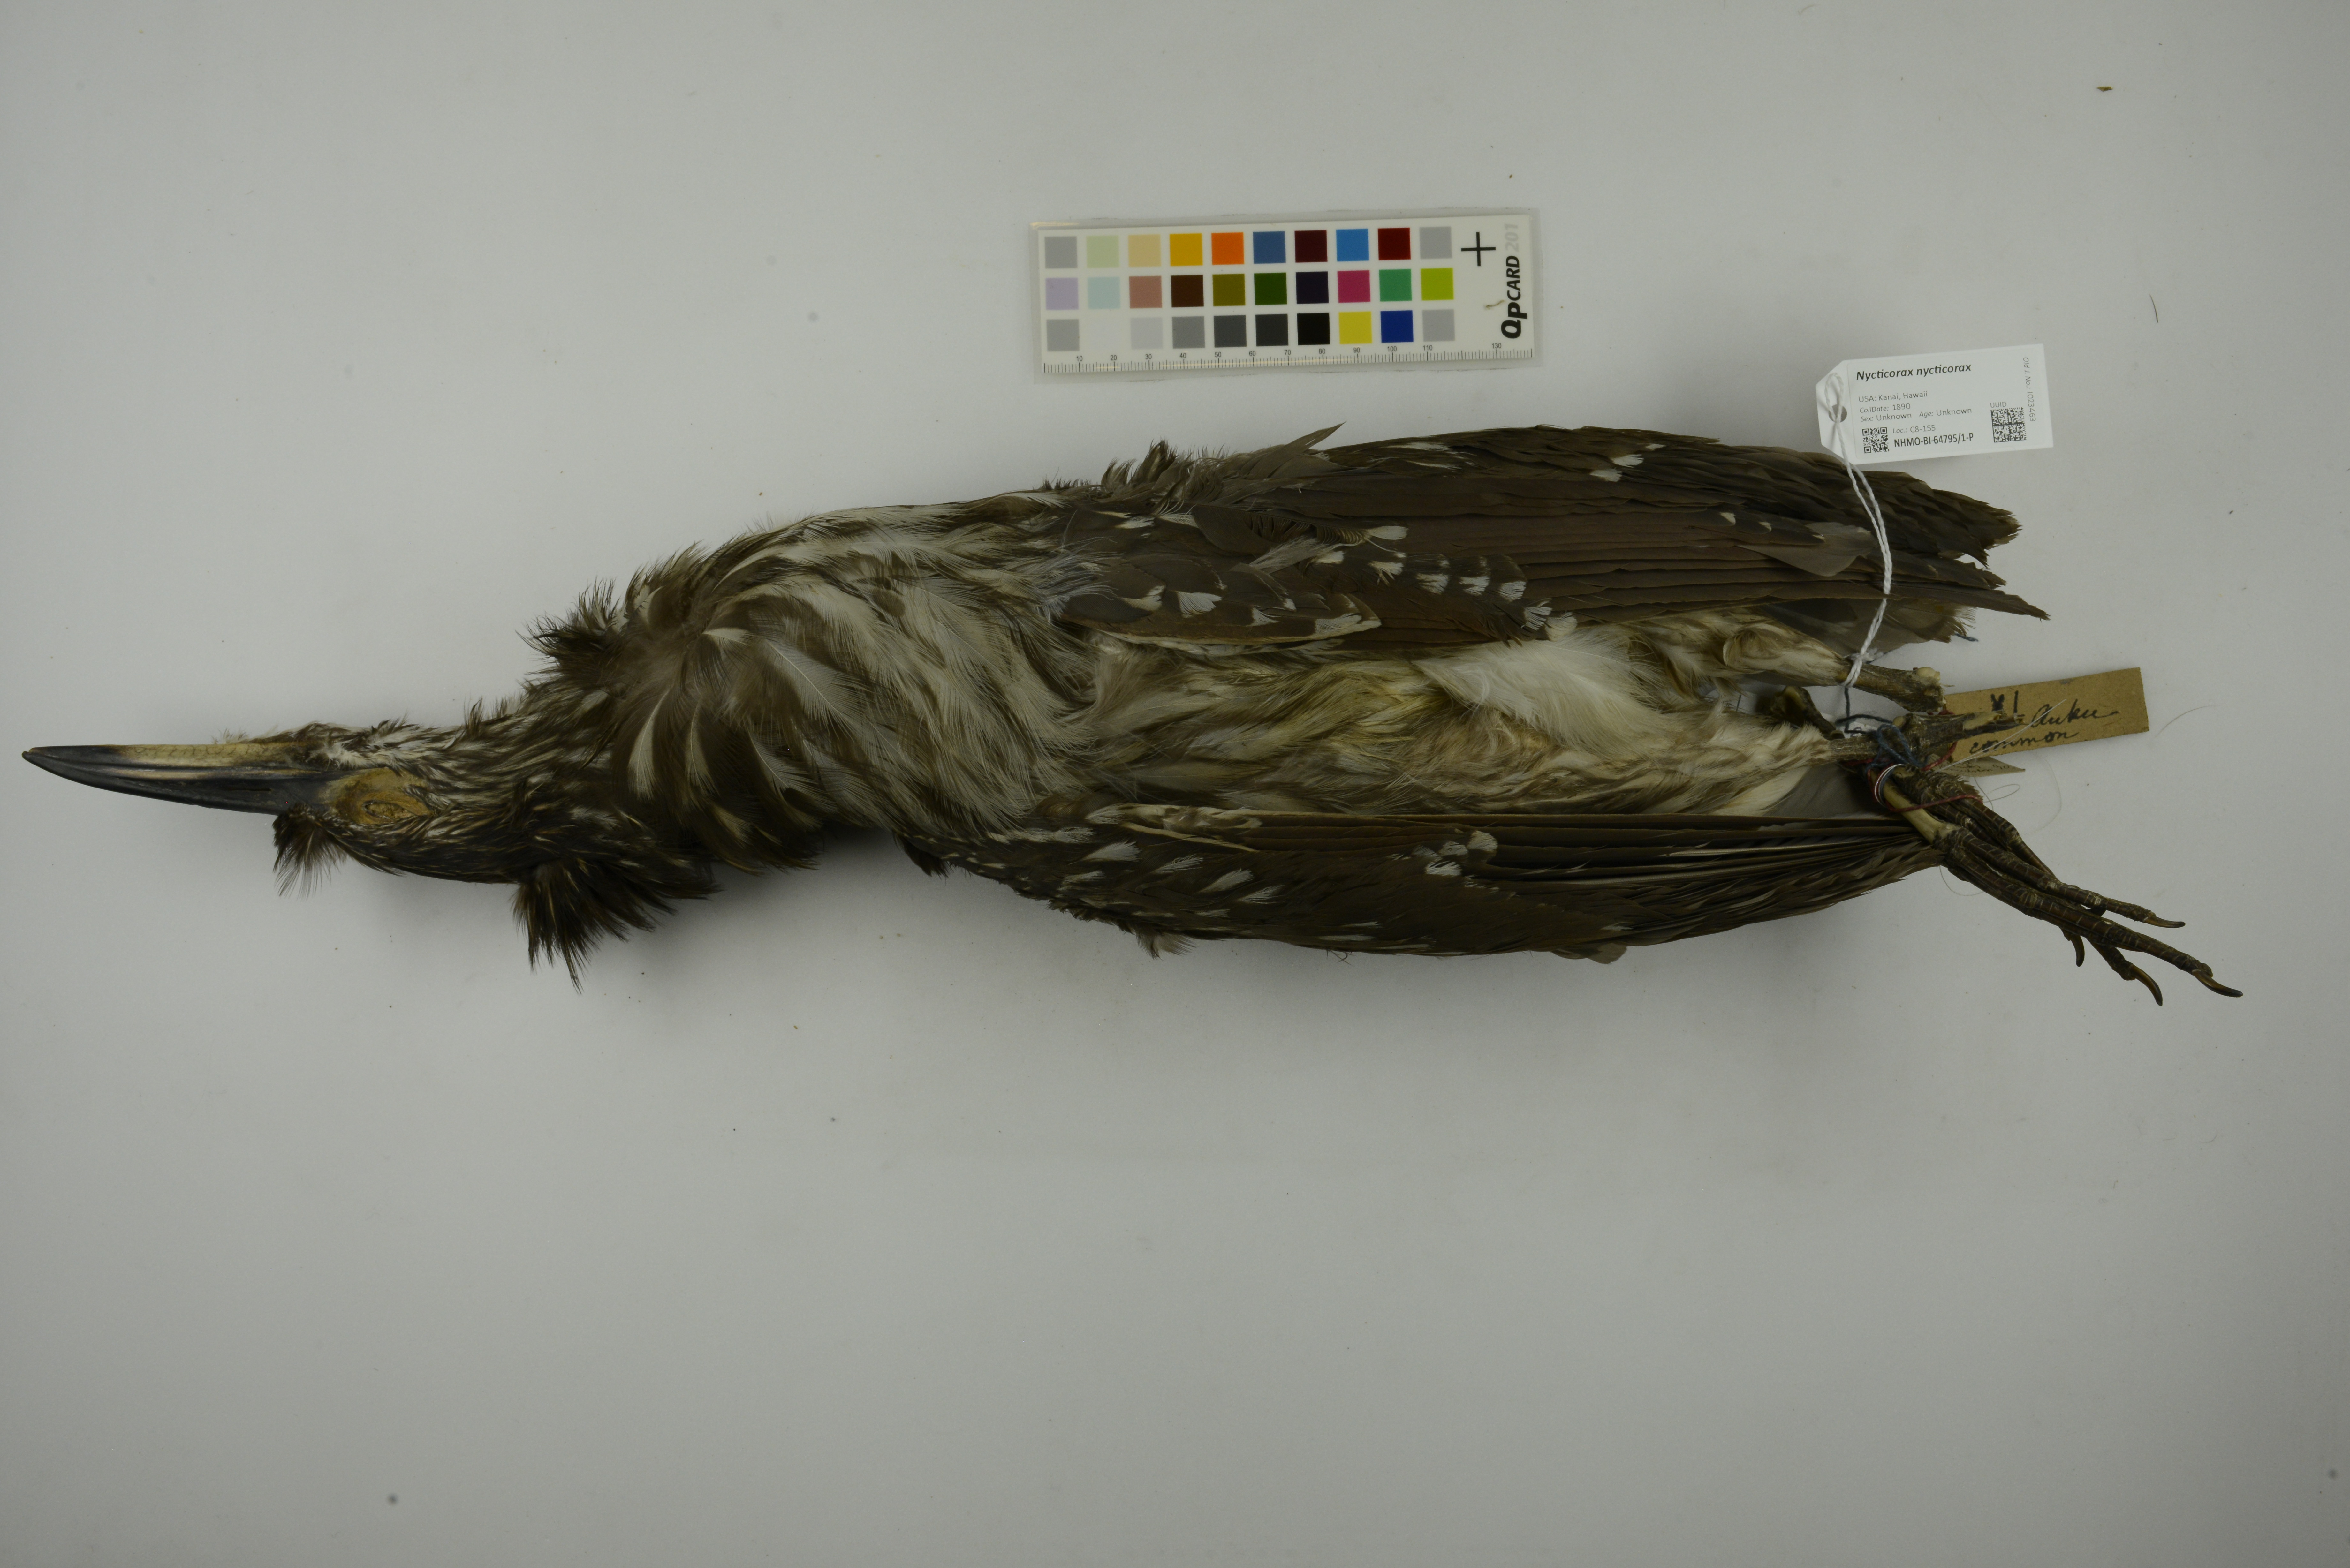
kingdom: Animalia
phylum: Chordata
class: Aves
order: Pelecaniformes
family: Ardeidae
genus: Nycticorax
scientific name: Nycticorax nycticorax
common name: Black-crowned night heron
